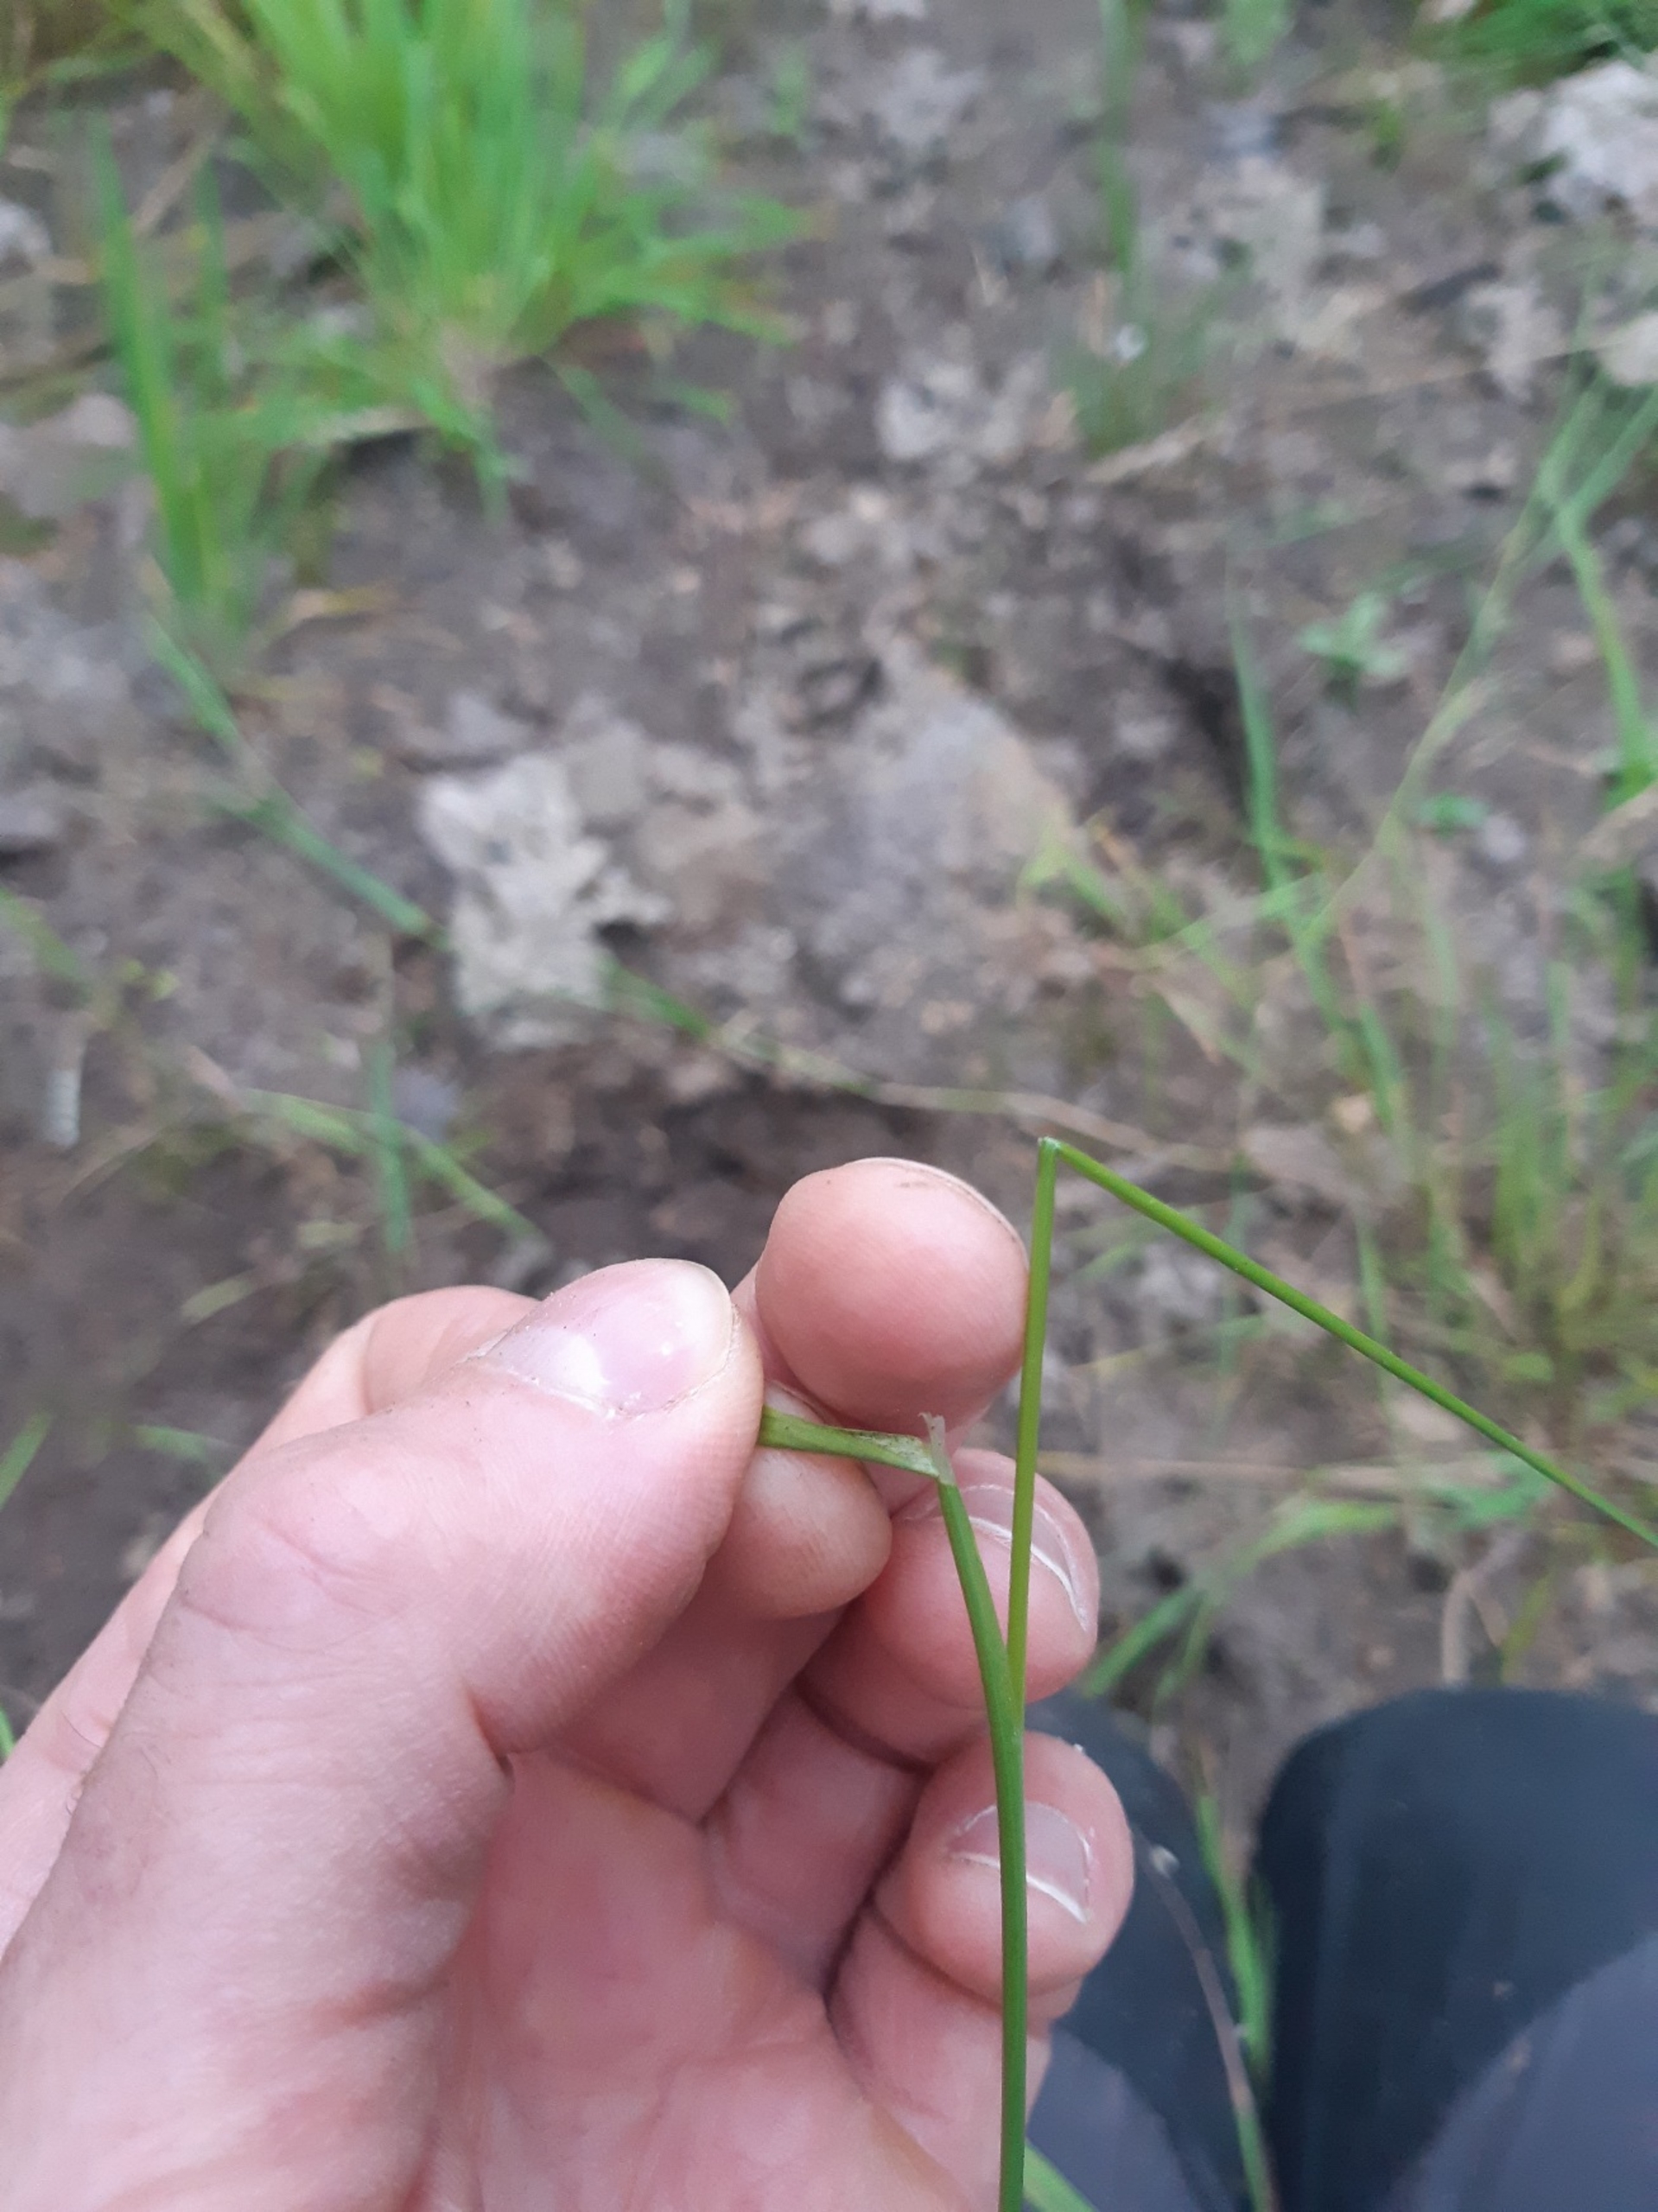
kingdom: Plantae
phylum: Tracheophyta
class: Liliopsida
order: Poales
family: Poaceae
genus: Agrostis
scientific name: Agrostis gigantea
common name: Stortoppet hvene
